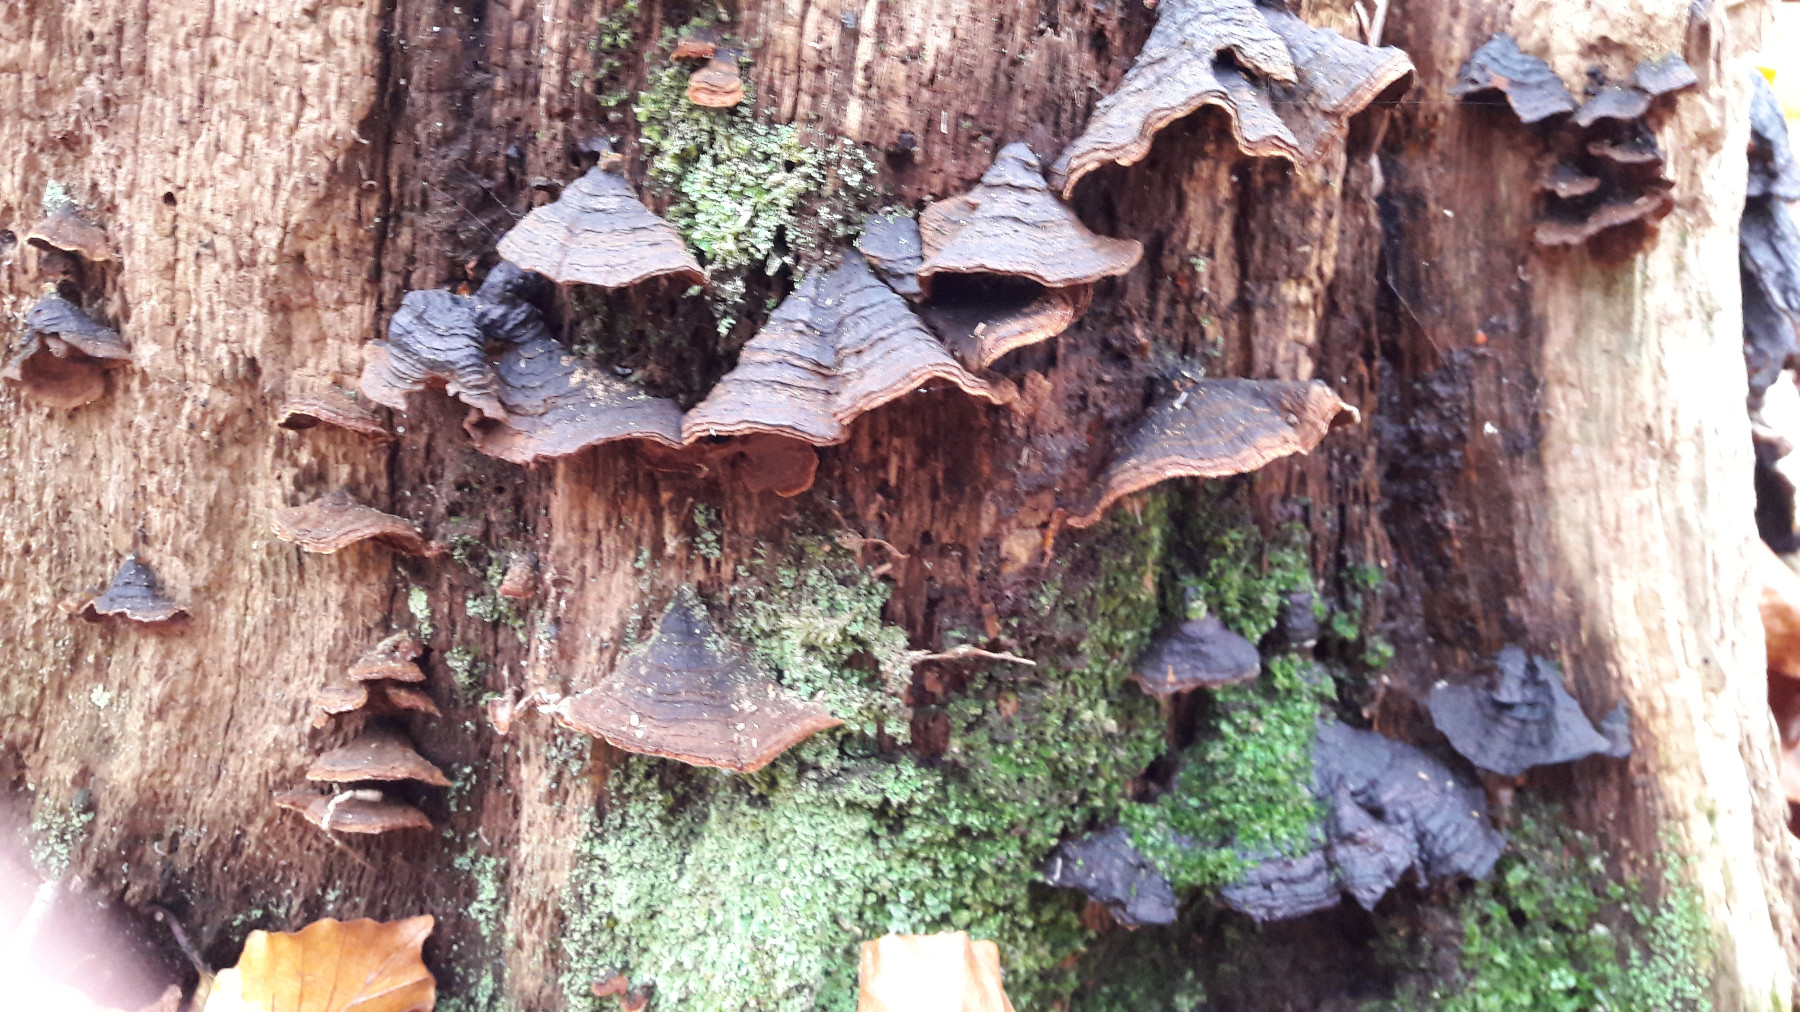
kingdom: Fungi
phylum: Basidiomycota
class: Agaricomycetes
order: Hymenochaetales
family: Hymenochaetaceae
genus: Hymenochaete
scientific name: Hymenochaete rubiginosa
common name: stiv ruslædersvamp
